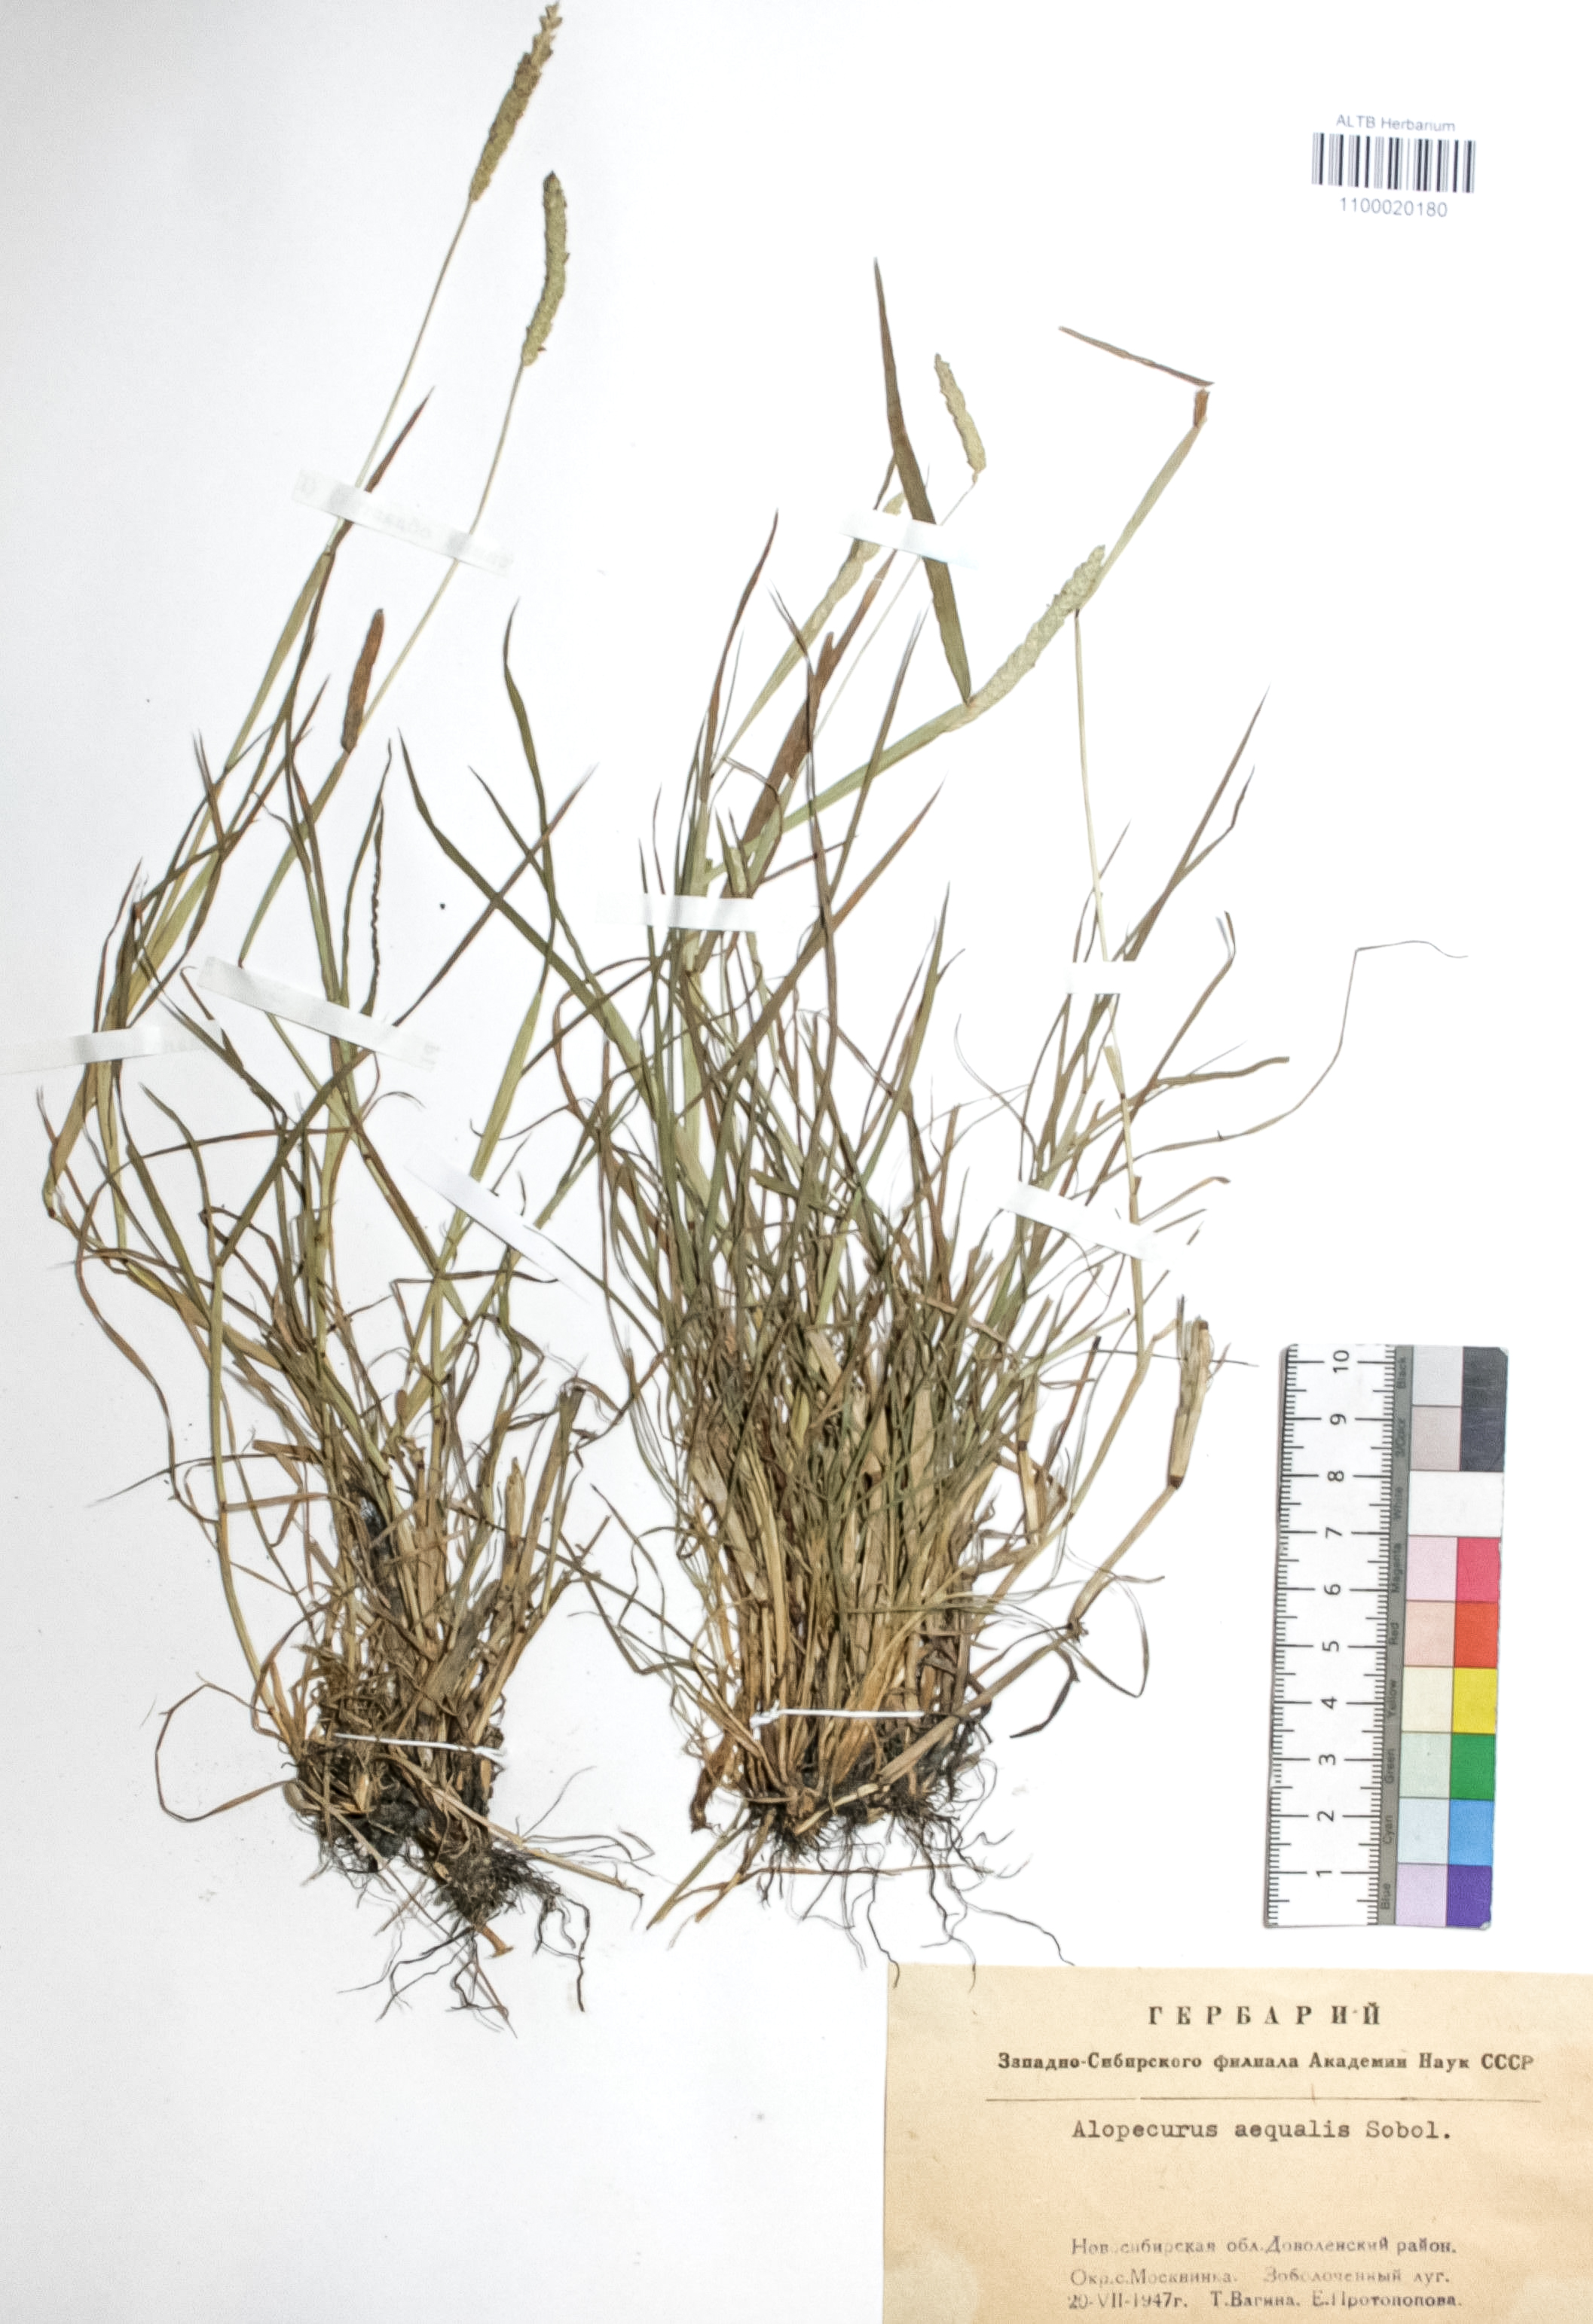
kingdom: Plantae
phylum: Tracheophyta
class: Liliopsida
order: Poales
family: Poaceae
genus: Alopecurus
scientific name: Alopecurus aequalis
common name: Orange foxtail
